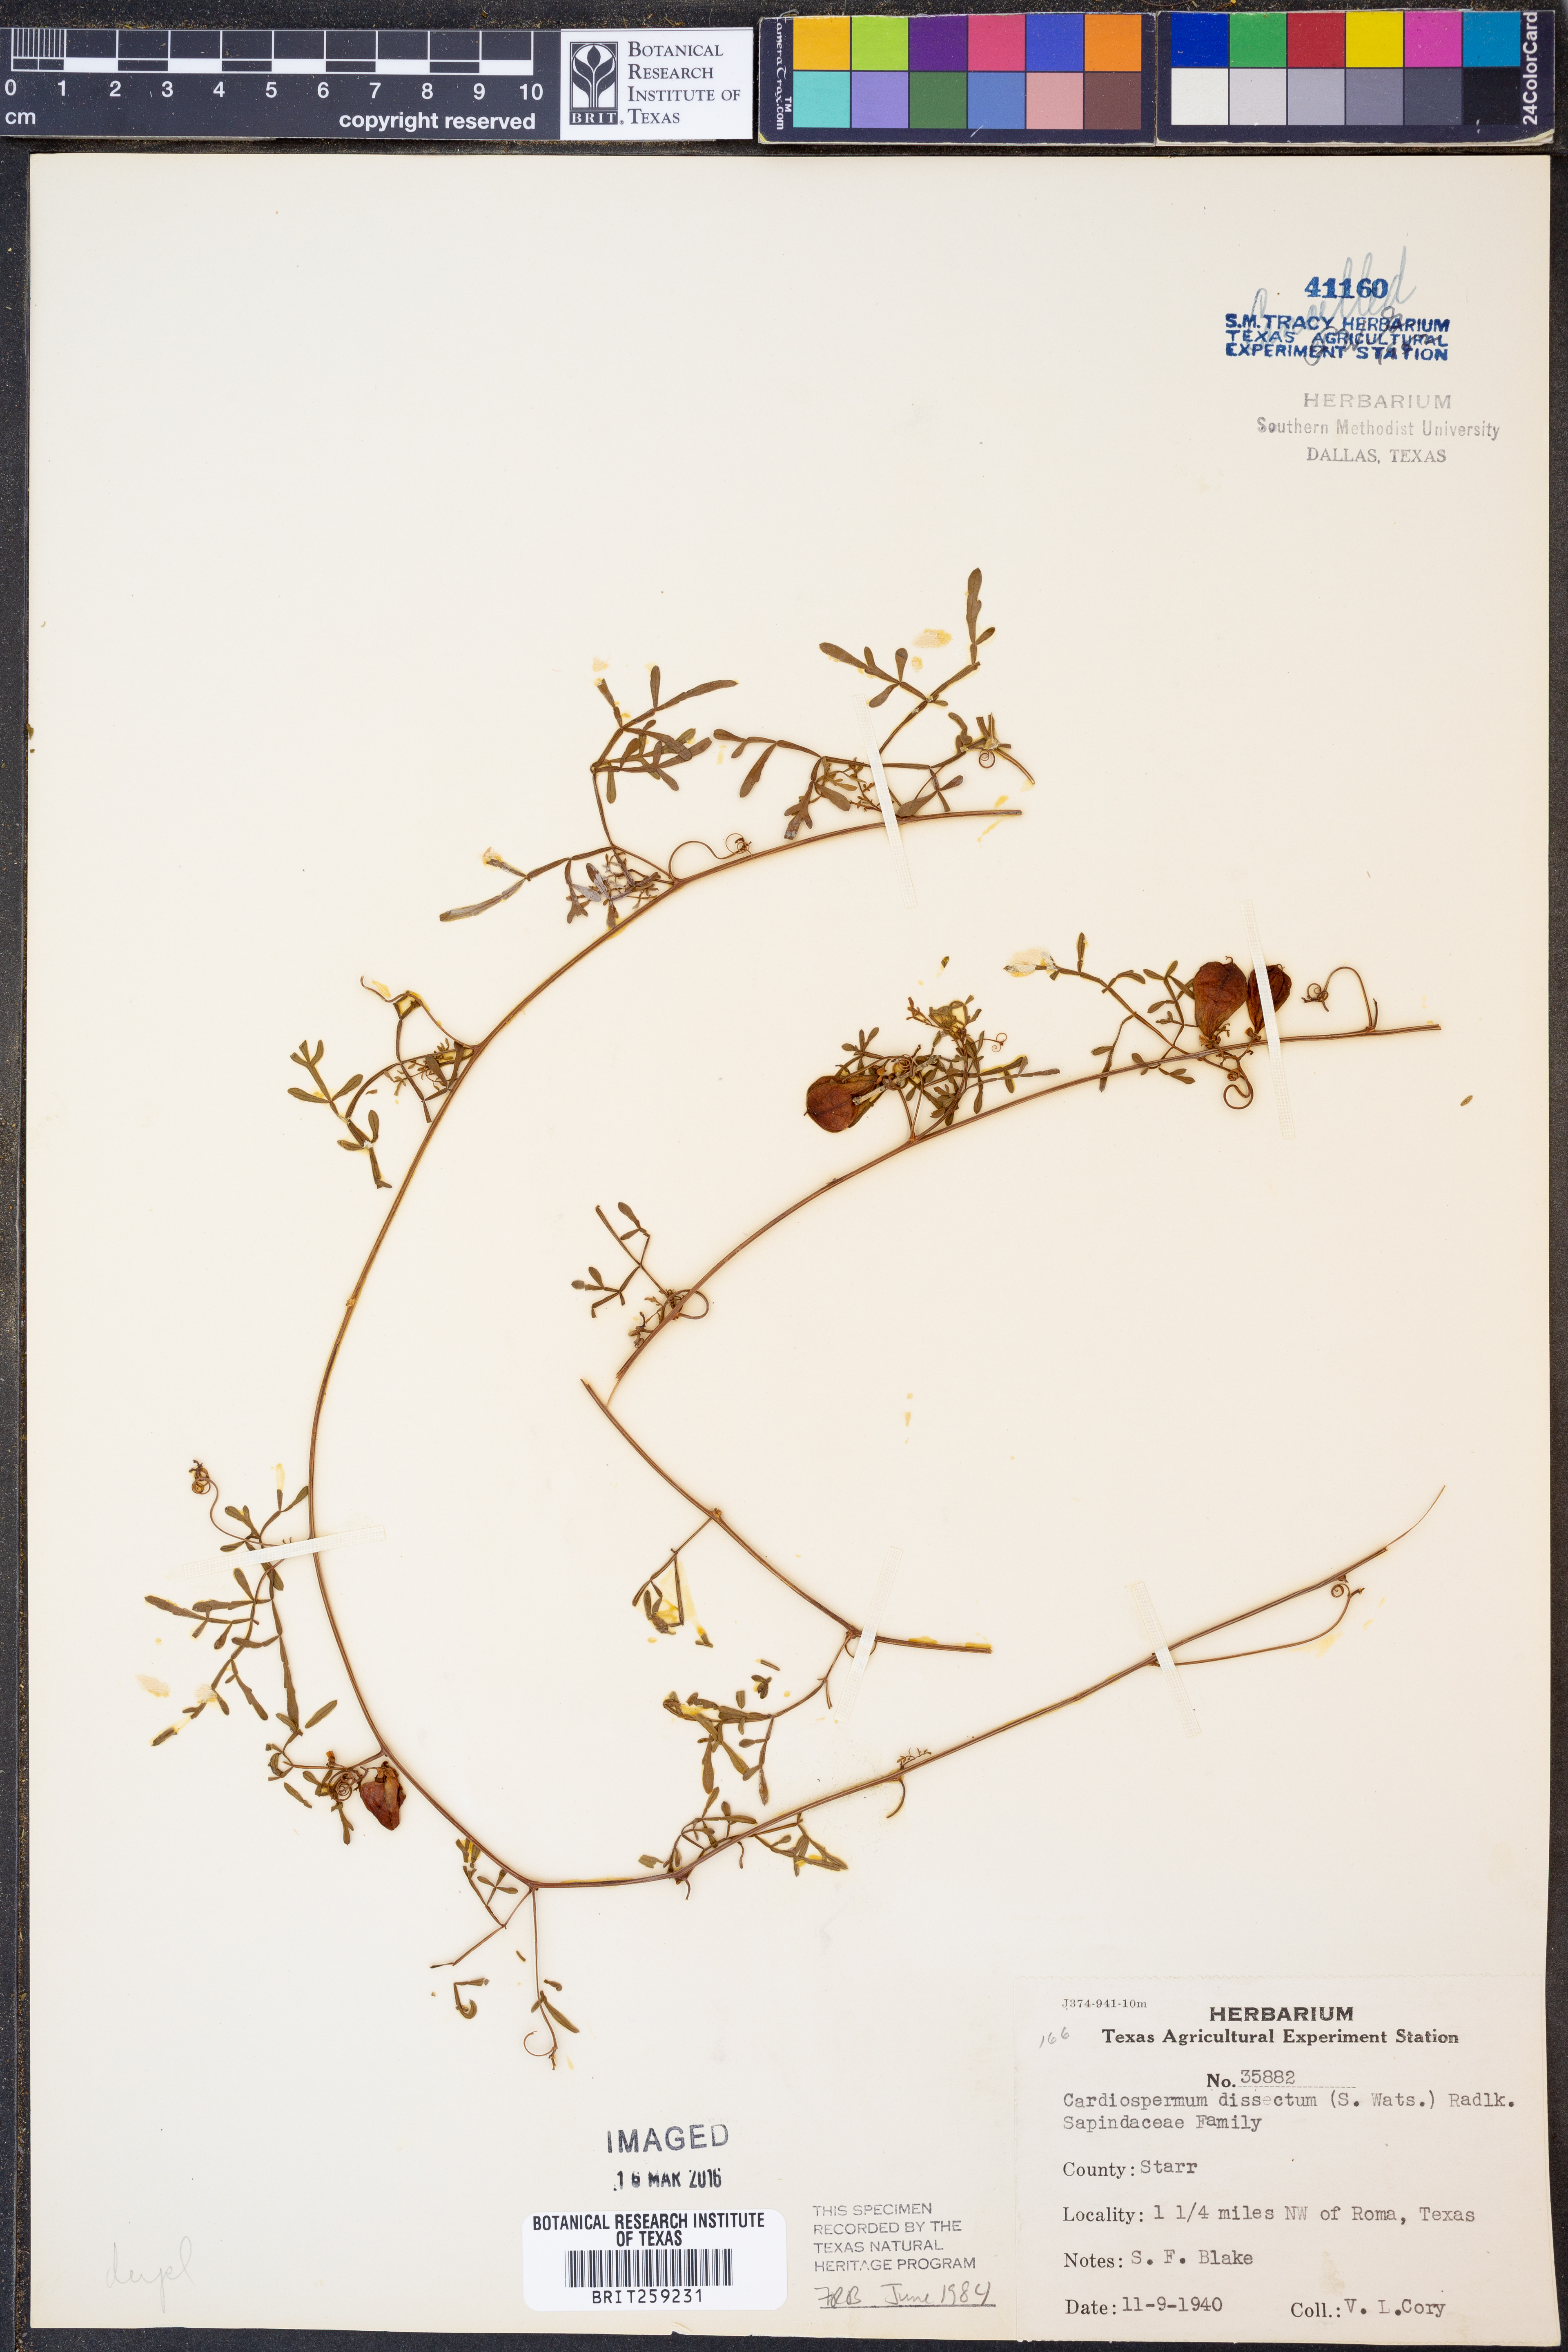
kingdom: Plantae
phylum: Tracheophyta
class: Magnoliopsida
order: Sapindales
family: Sapindaceae
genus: Serjania
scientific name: Serjania dissecta
